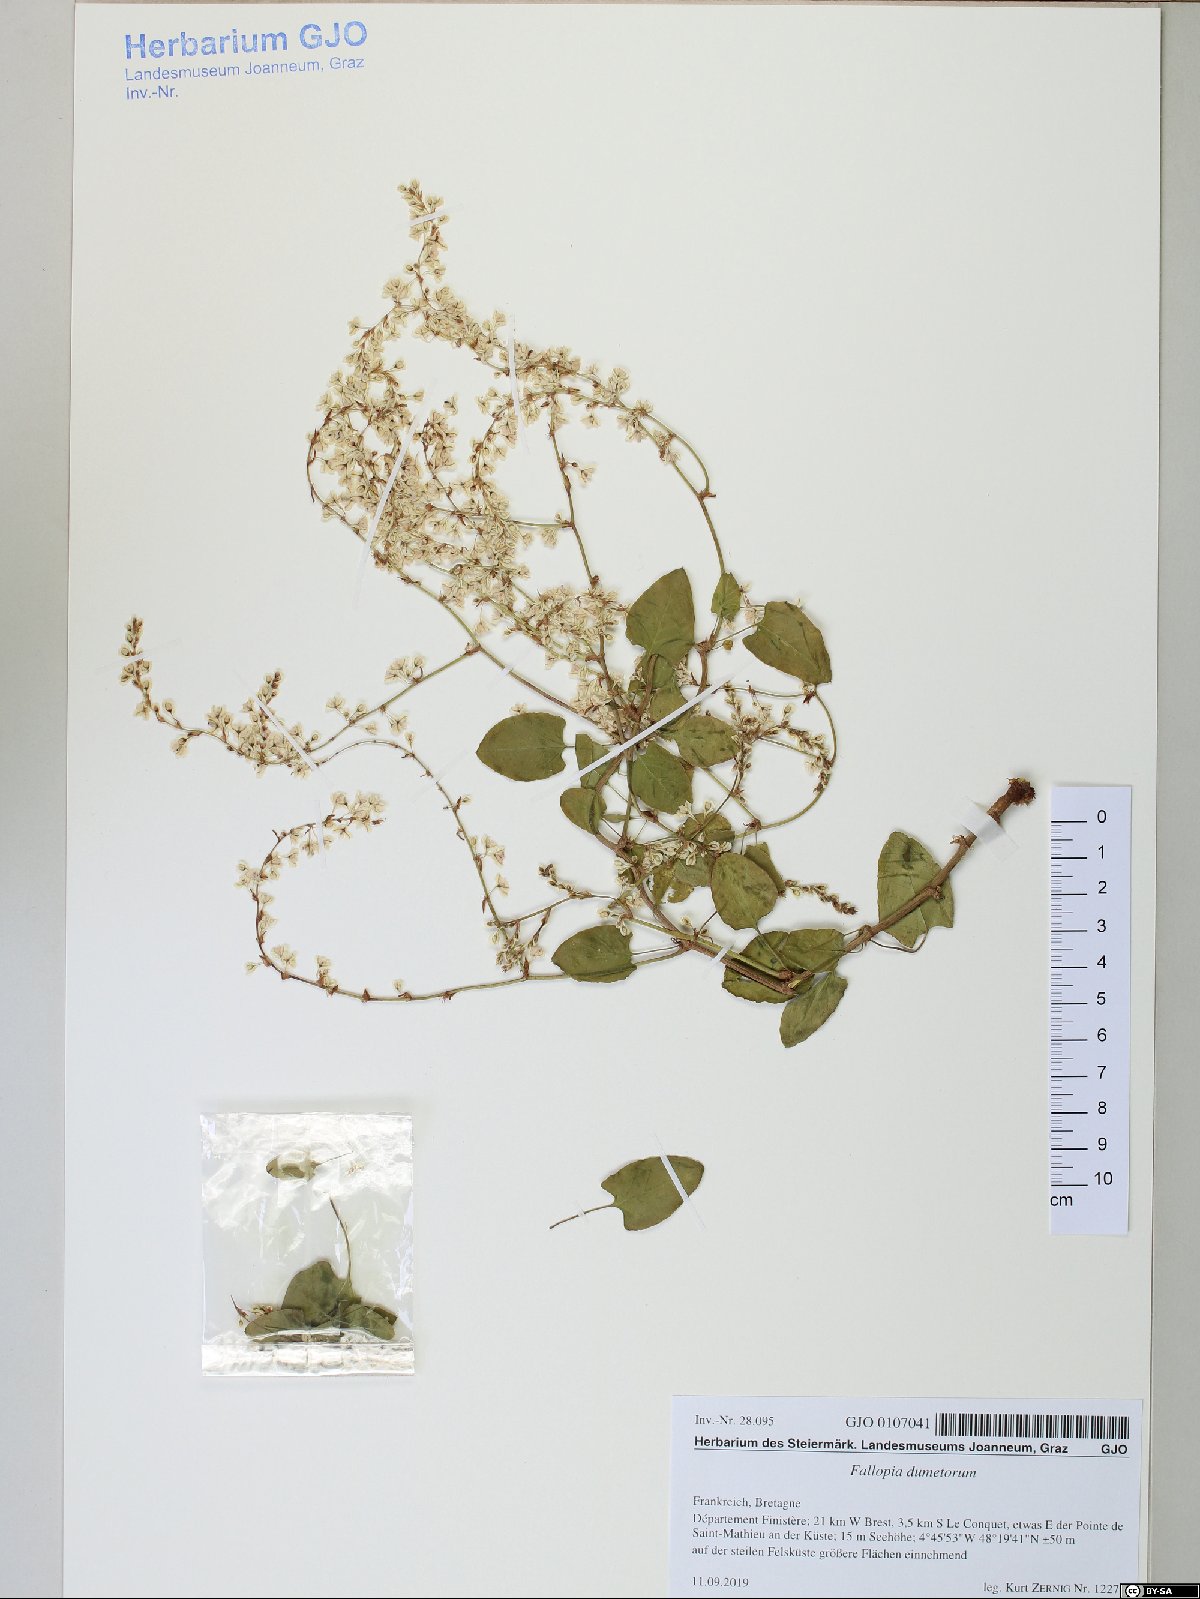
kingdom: Plantae
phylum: Tracheophyta
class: Magnoliopsida
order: Caryophyllales
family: Polygonaceae
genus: Fallopia
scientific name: Fallopia dumetorum
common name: Copse-bindweed
